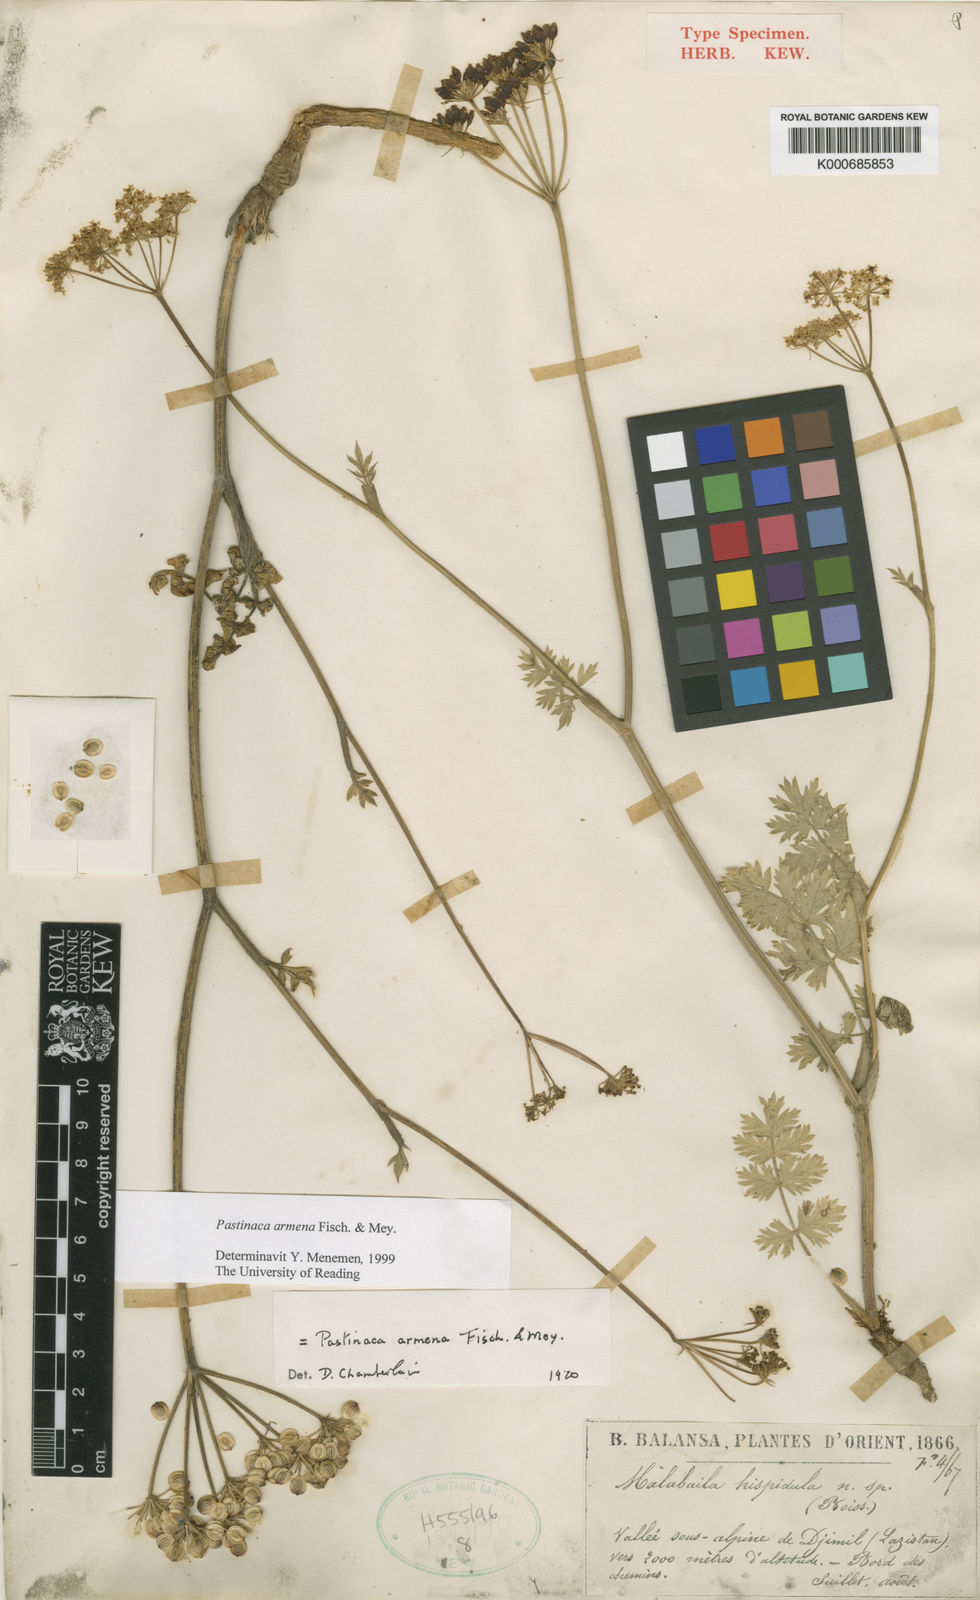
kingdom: Plantae
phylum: Tracheophyta
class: Magnoliopsida
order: Apiales
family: Apiaceae
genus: Pastinaca
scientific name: Pastinaca armena
